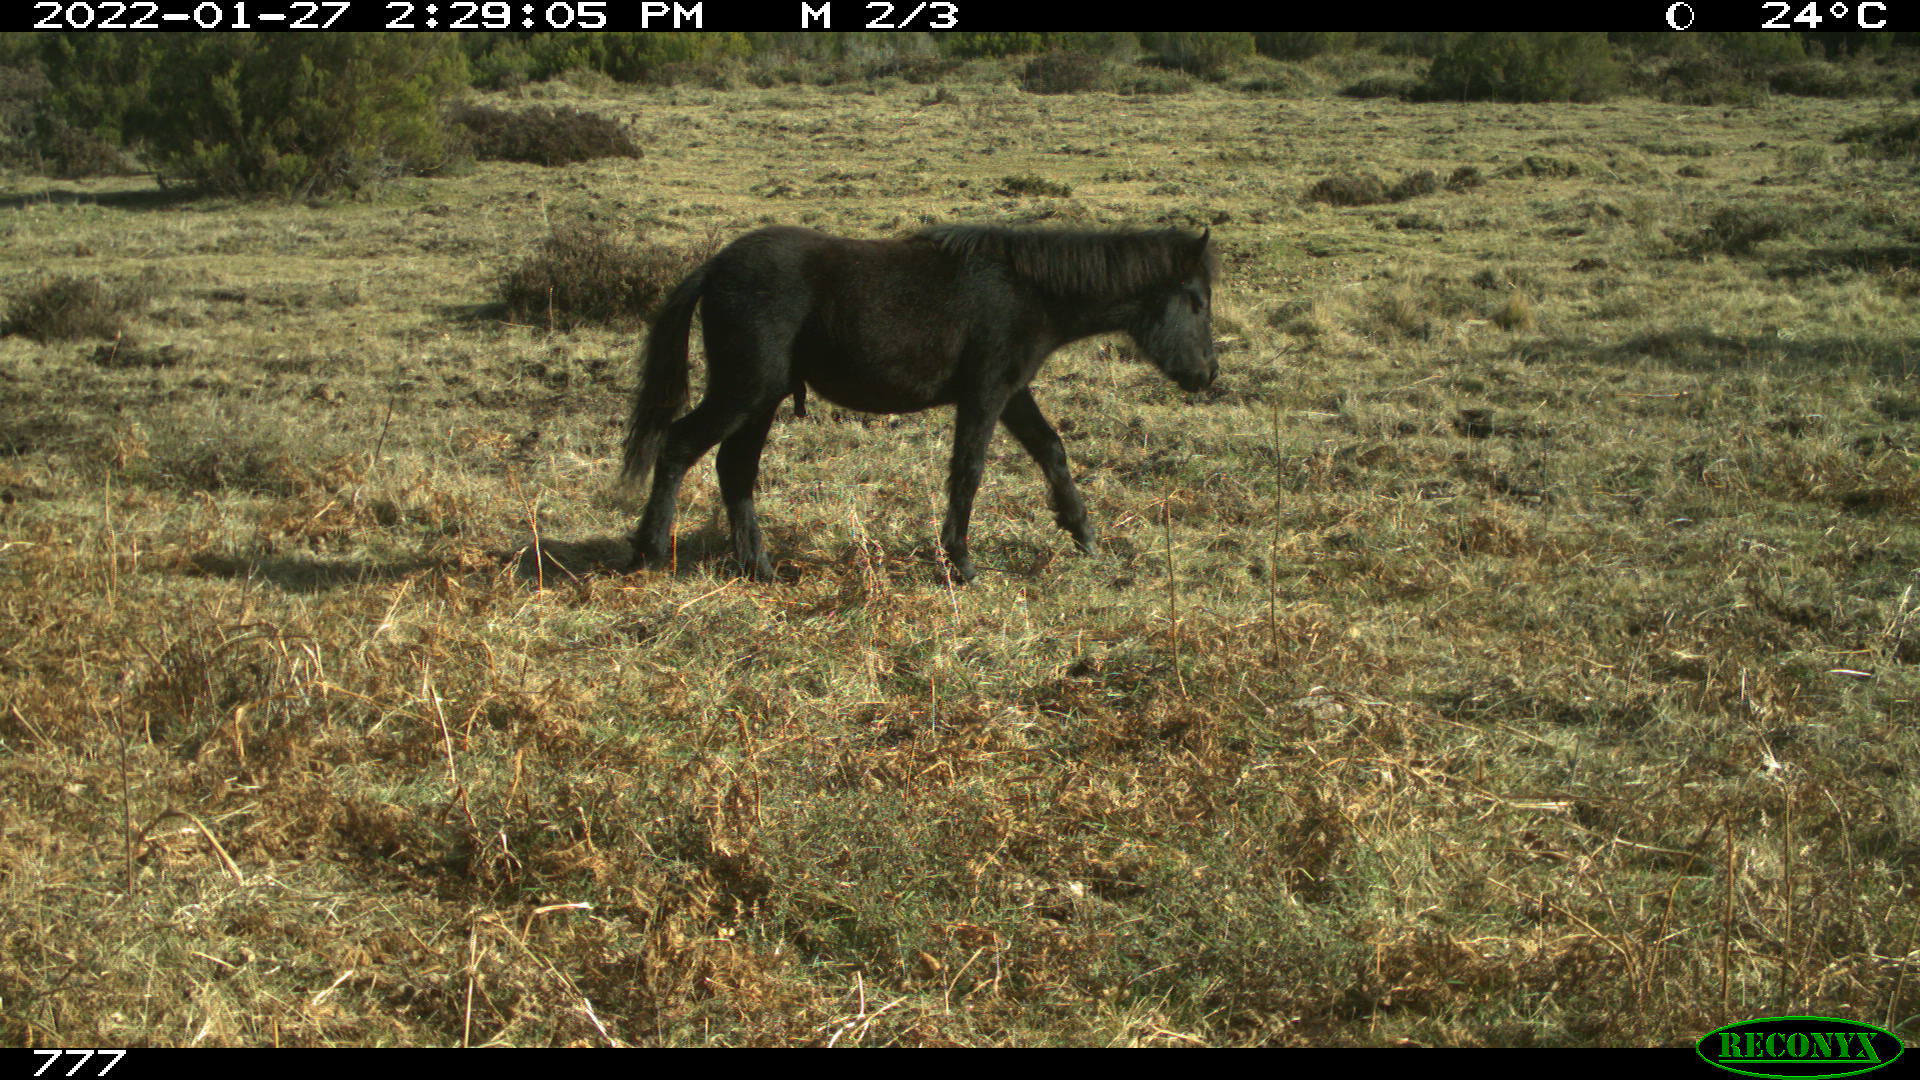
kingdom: Animalia
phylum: Chordata
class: Mammalia
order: Perissodactyla
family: Equidae
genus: Equus
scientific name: Equus caballus
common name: Horse
